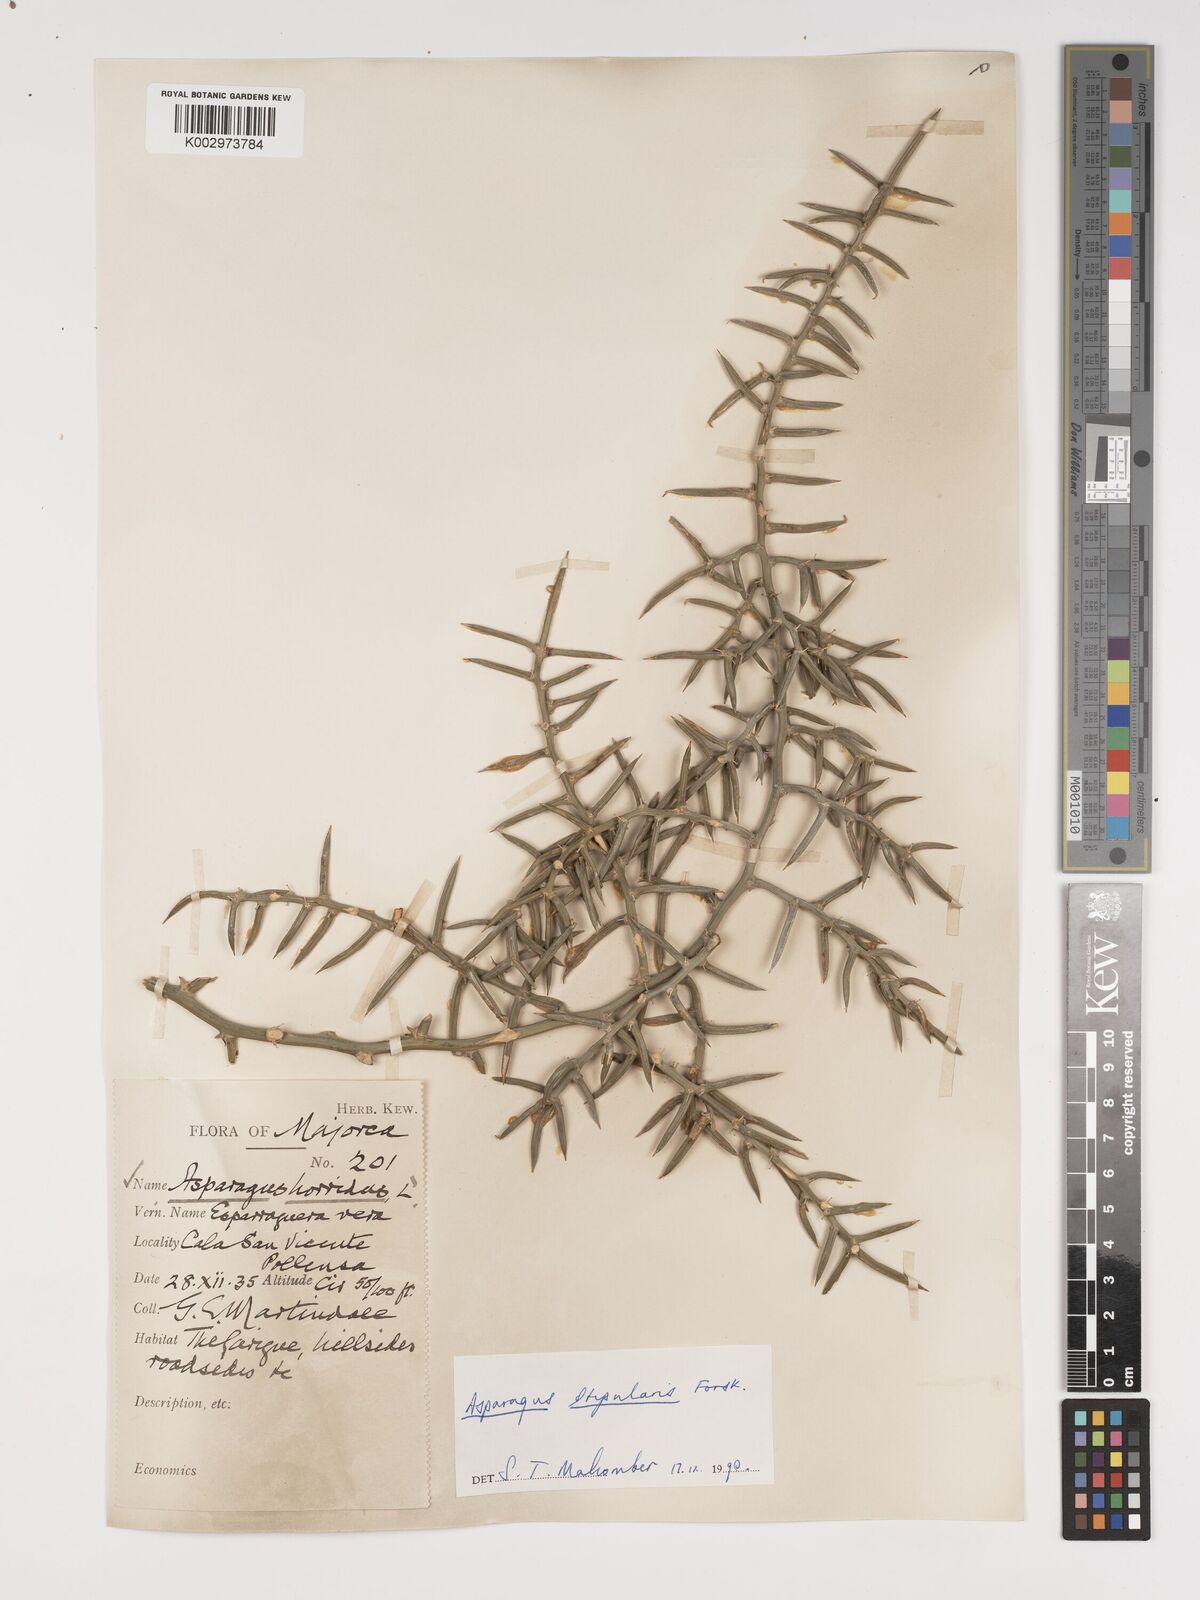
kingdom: Plantae
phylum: Tracheophyta
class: Liliopsida
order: Asparagales
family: Asparagaceae
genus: Asparagus
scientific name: Asparagus horridus
